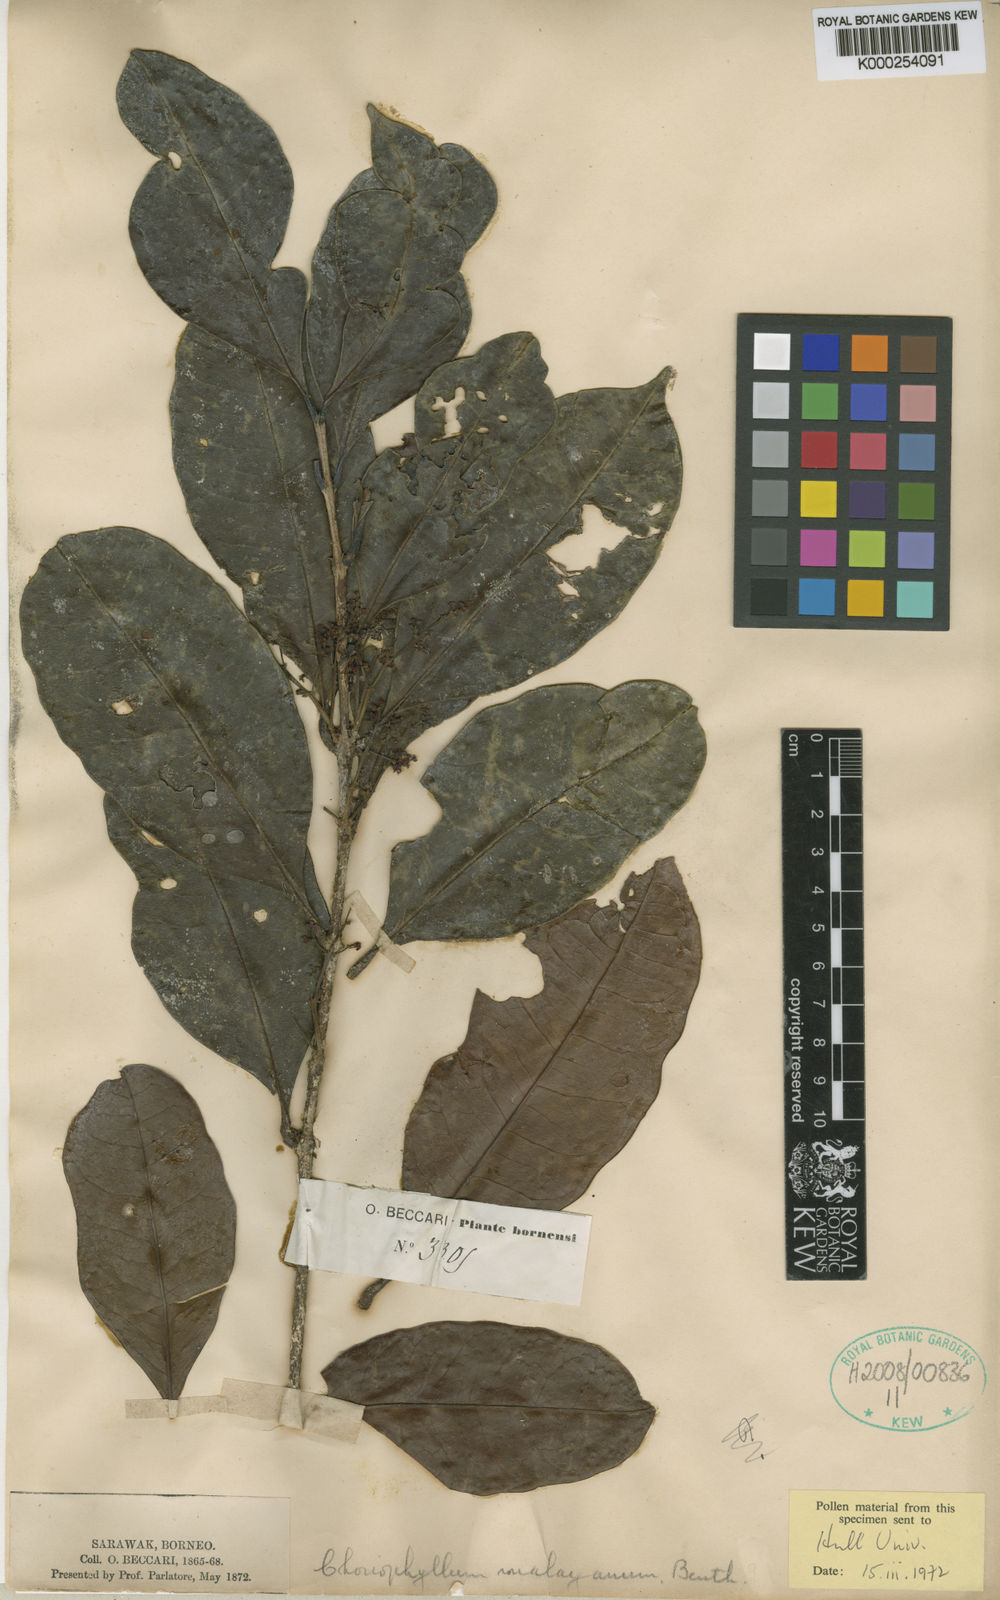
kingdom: Plantae
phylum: Tracheophyta
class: Magnoliopsida
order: Malpighiales
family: Picrodendraceae
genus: Austrobuxus
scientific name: Austrobuxus nitidus
